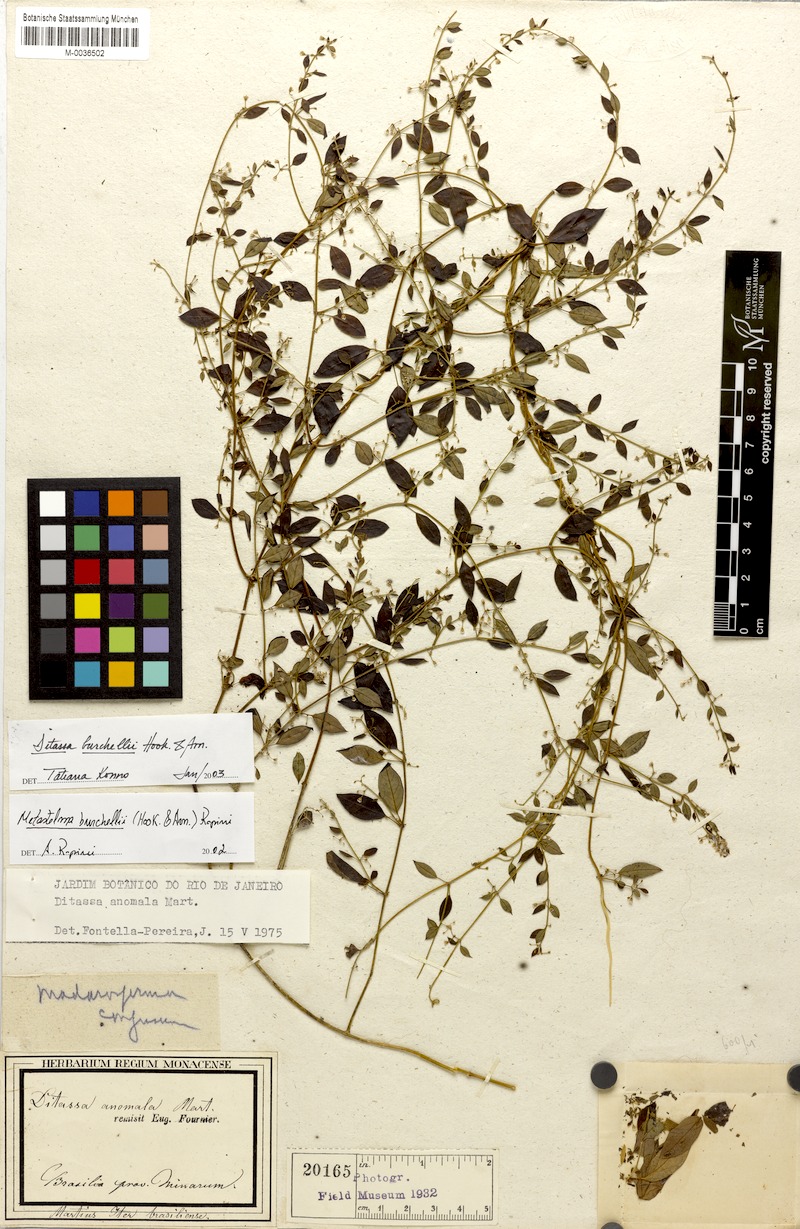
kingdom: Plantae
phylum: Tracheophyta
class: Magnoliopsida
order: Gentianales
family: Apocynaceae
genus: Metastelma
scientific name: Metastelma burchellii
